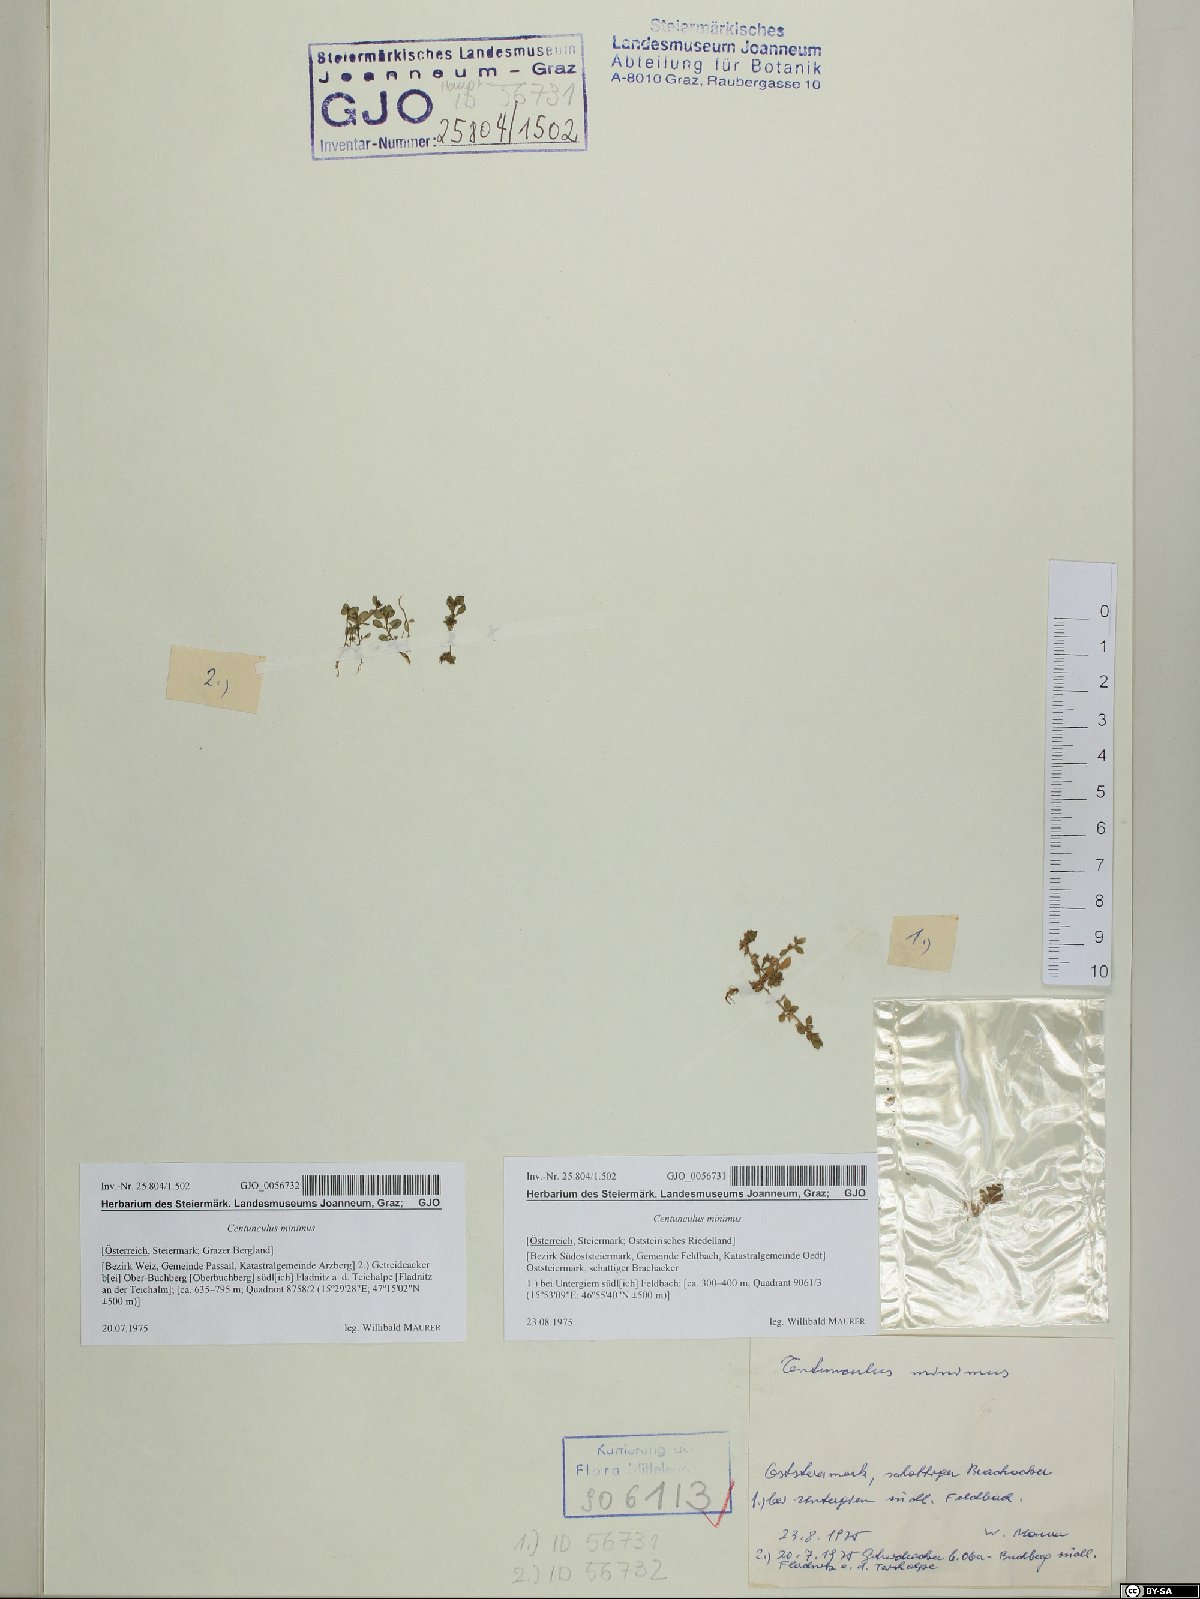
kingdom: Plantae
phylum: Tracheophyta
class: Magnoliopsida
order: Ericales
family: Primulaceae
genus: Lysimachia
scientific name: Lysimachia minima
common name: Chaffweed
